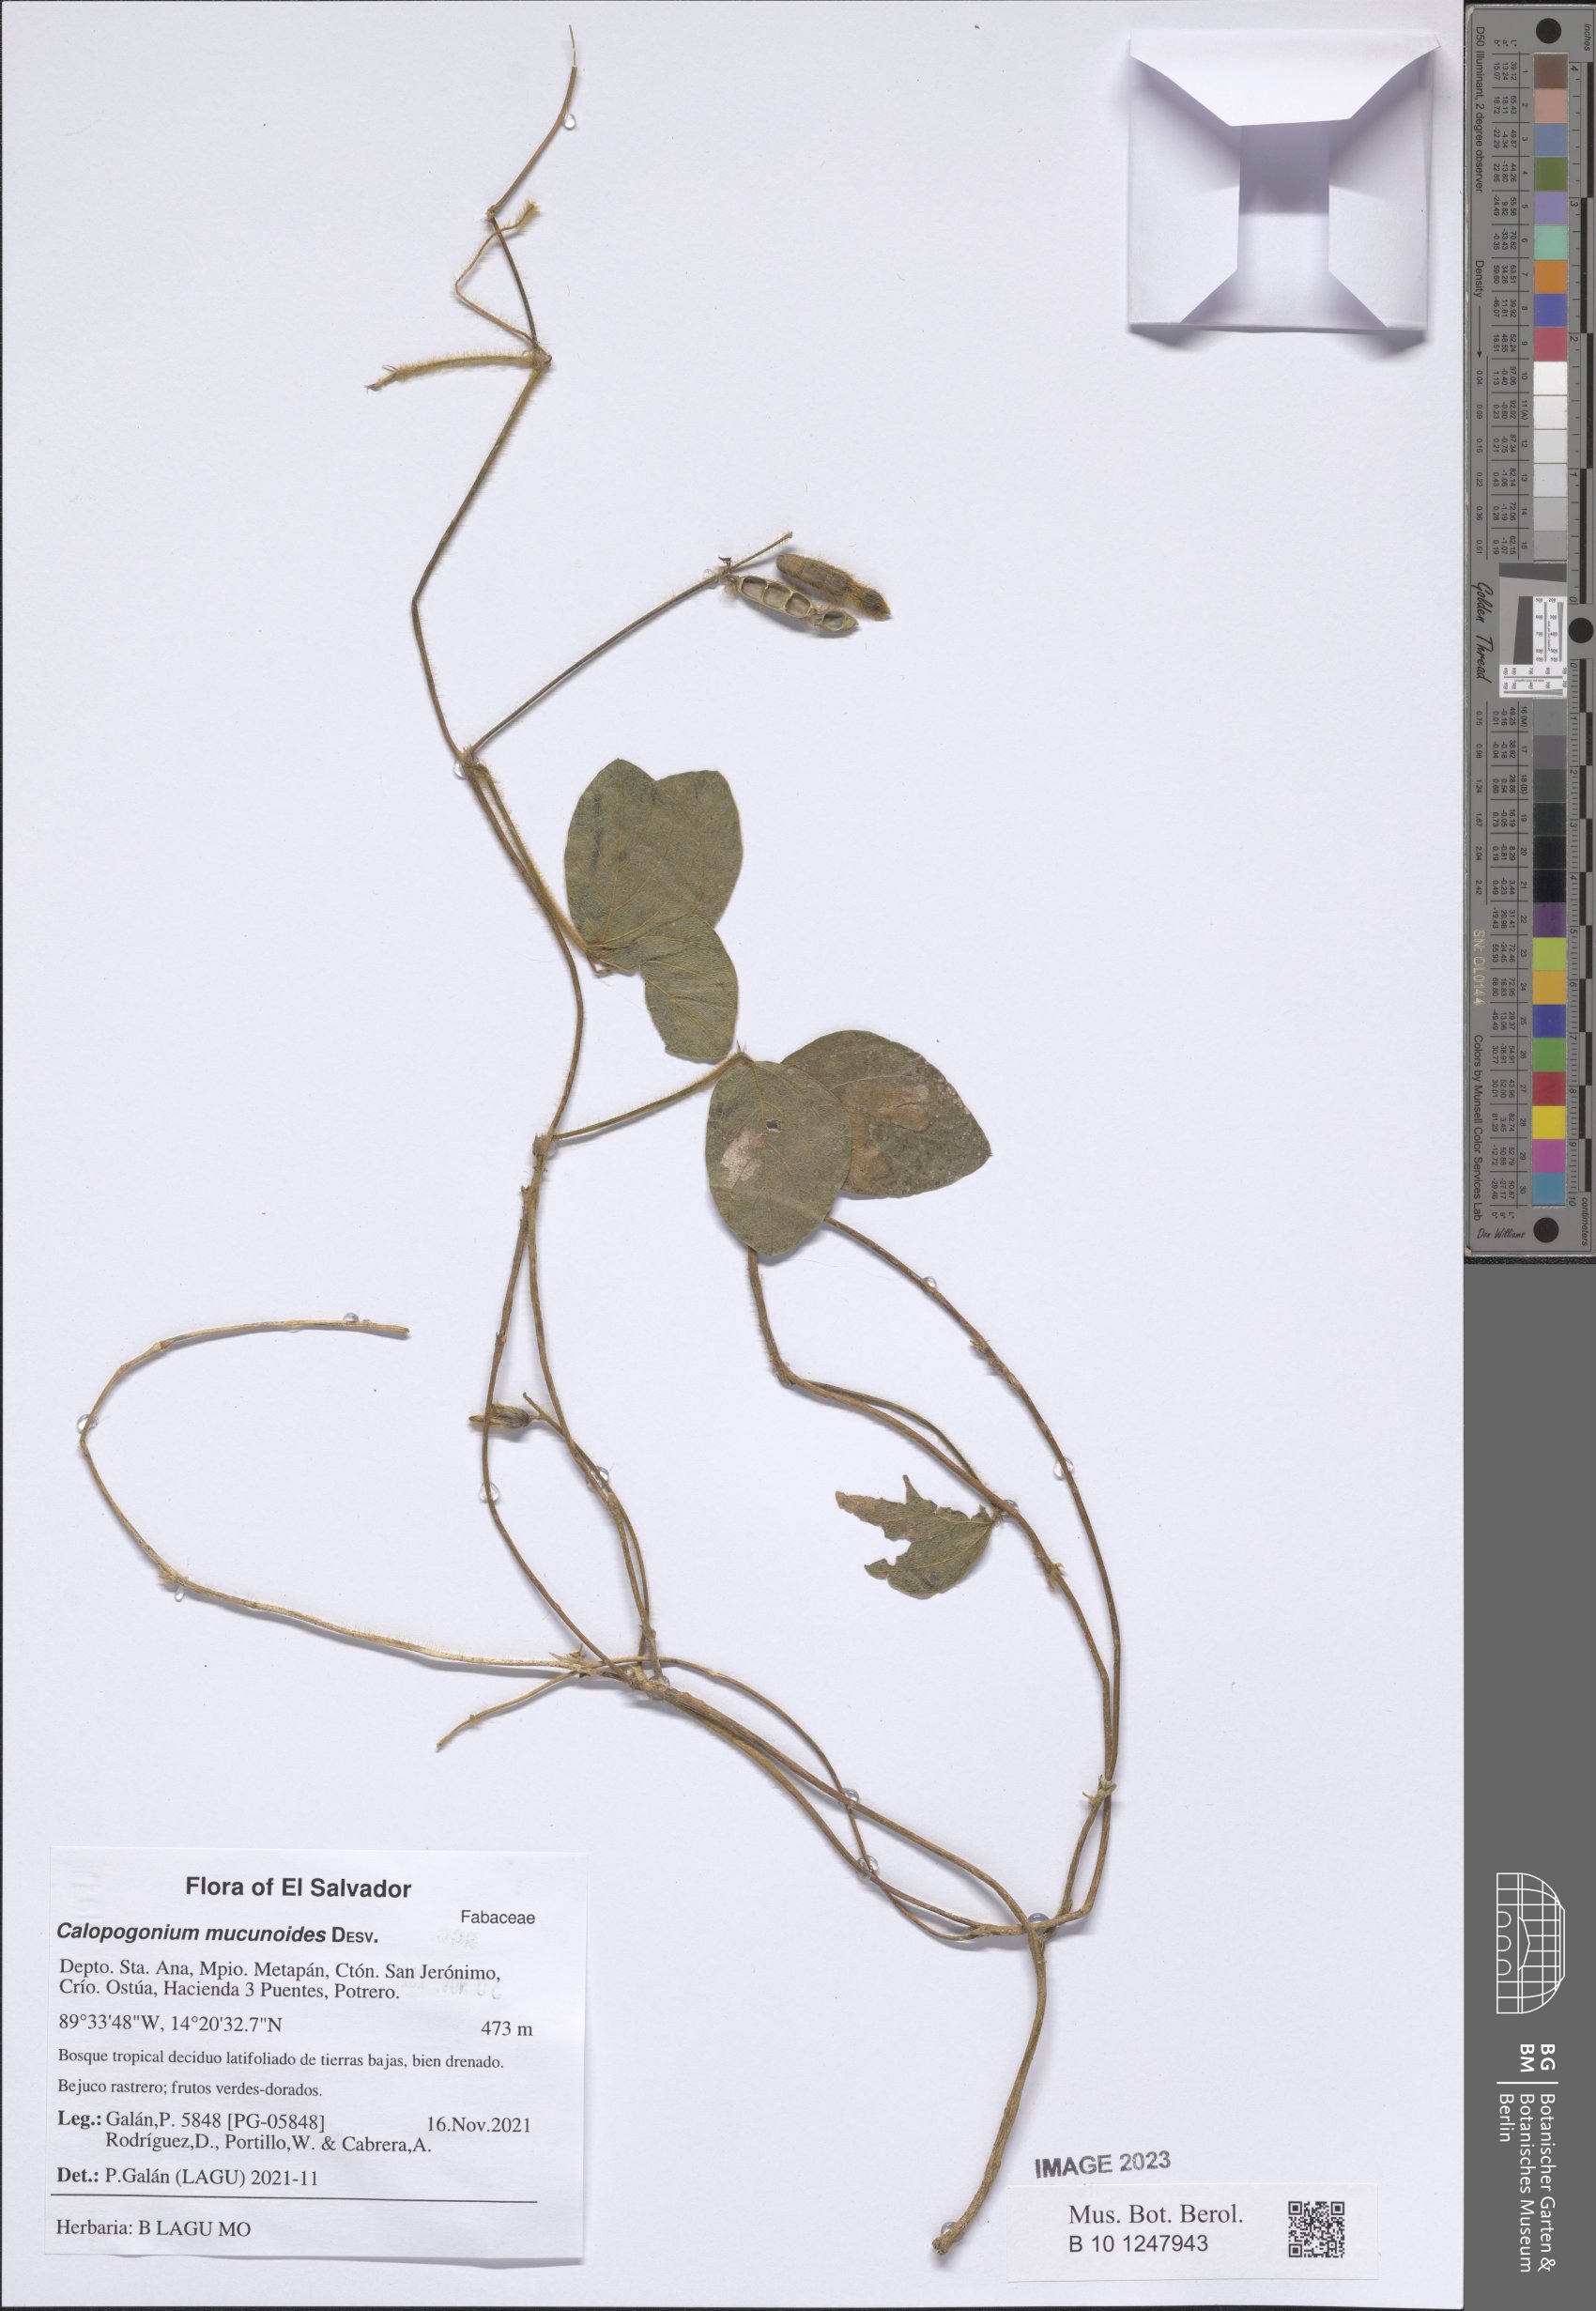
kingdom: Plantae
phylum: Tracheophyta
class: Magnoliopsida
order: Fabales
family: Fabaceae
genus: Calopogonium
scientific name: Calopogonium mucunoides
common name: Calopo
